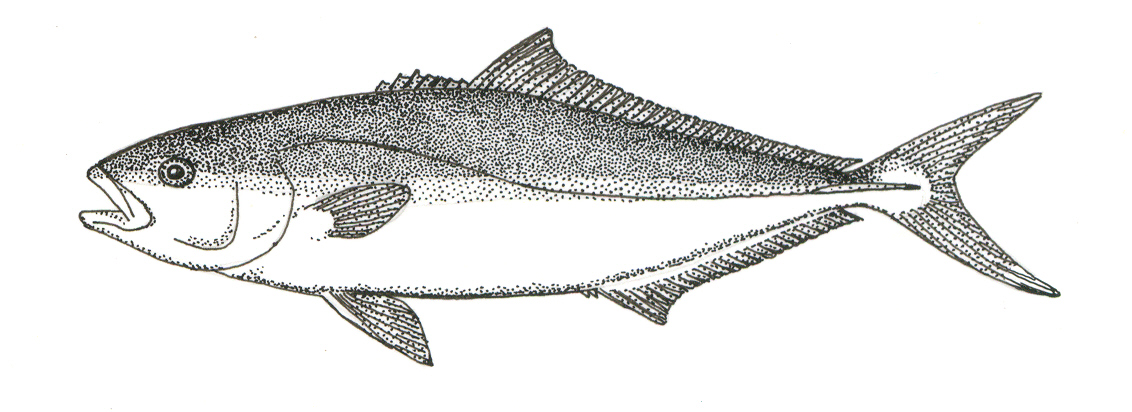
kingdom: Animalia
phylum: Chordata
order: Perciformes
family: Carangidae
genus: Seriola
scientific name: Seriola lalandi
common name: Yellowtail kingfish
